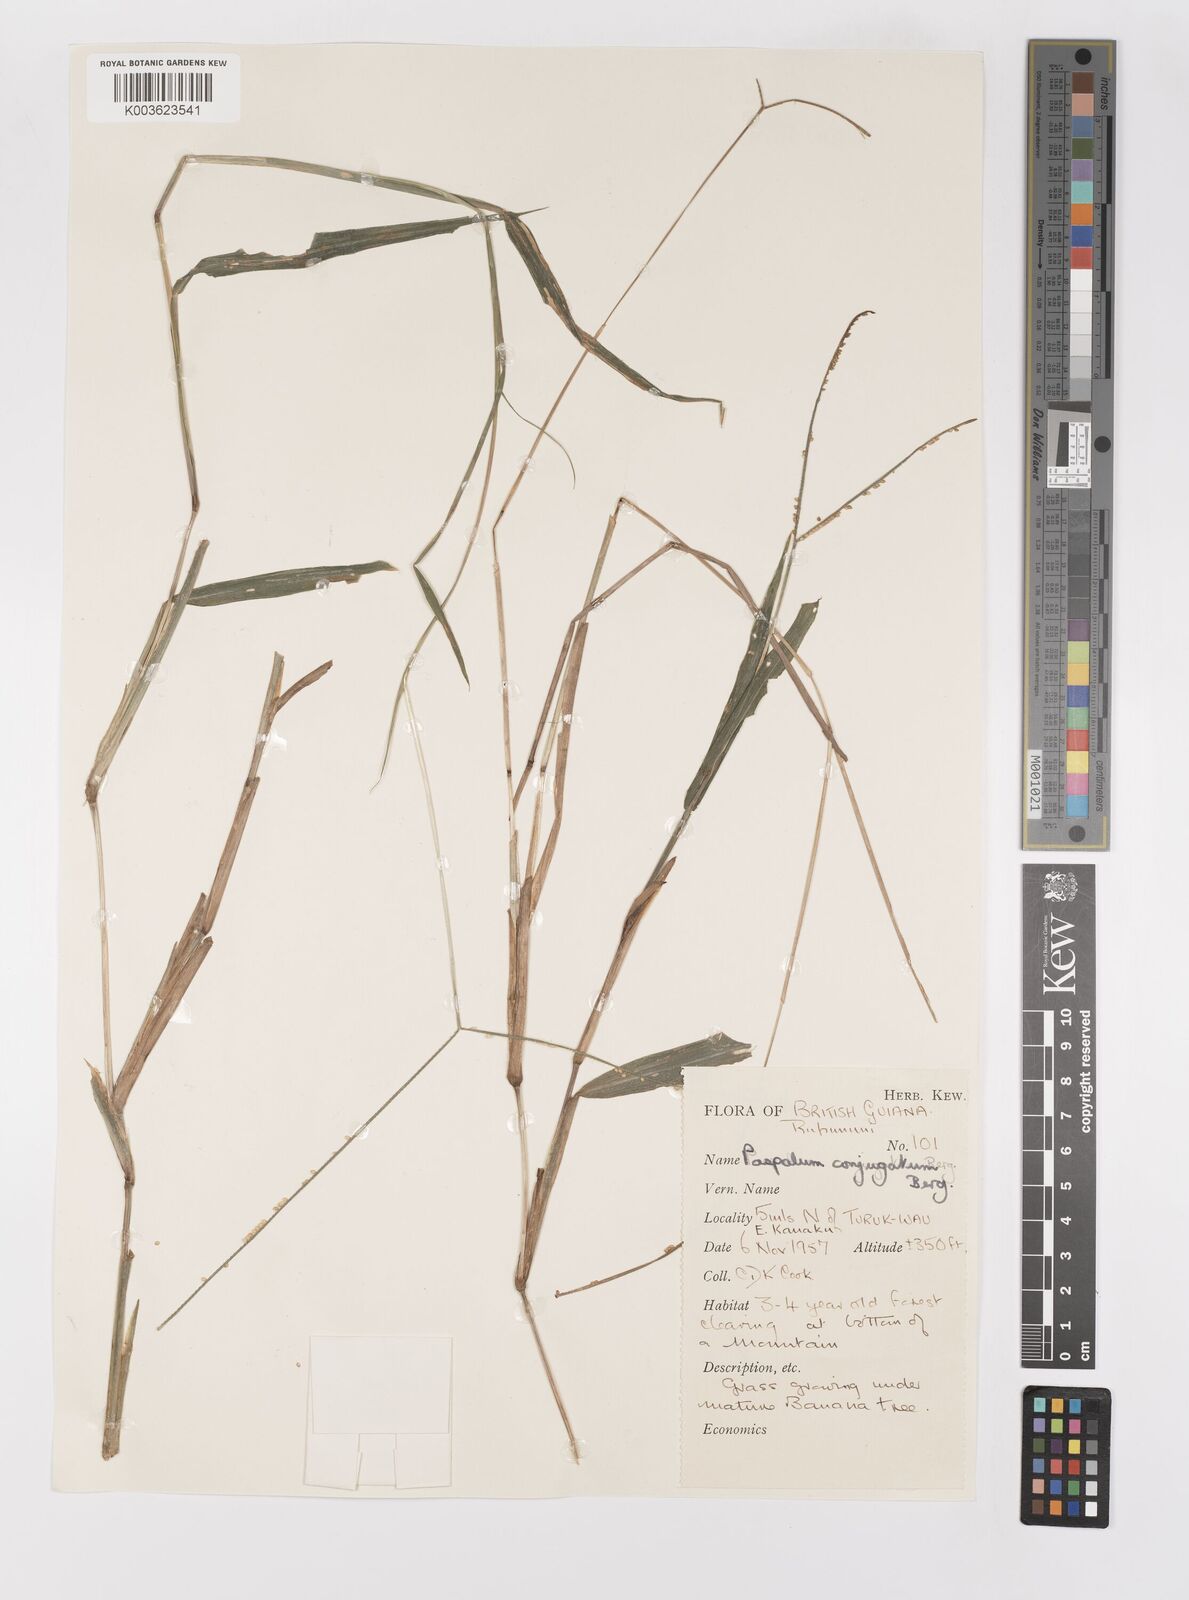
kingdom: Plantae
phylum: Tracheophyta
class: Liliopsida
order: Poales
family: Poaceae
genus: Paspalum
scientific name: Paspalum conjugatum
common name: Hilograss
